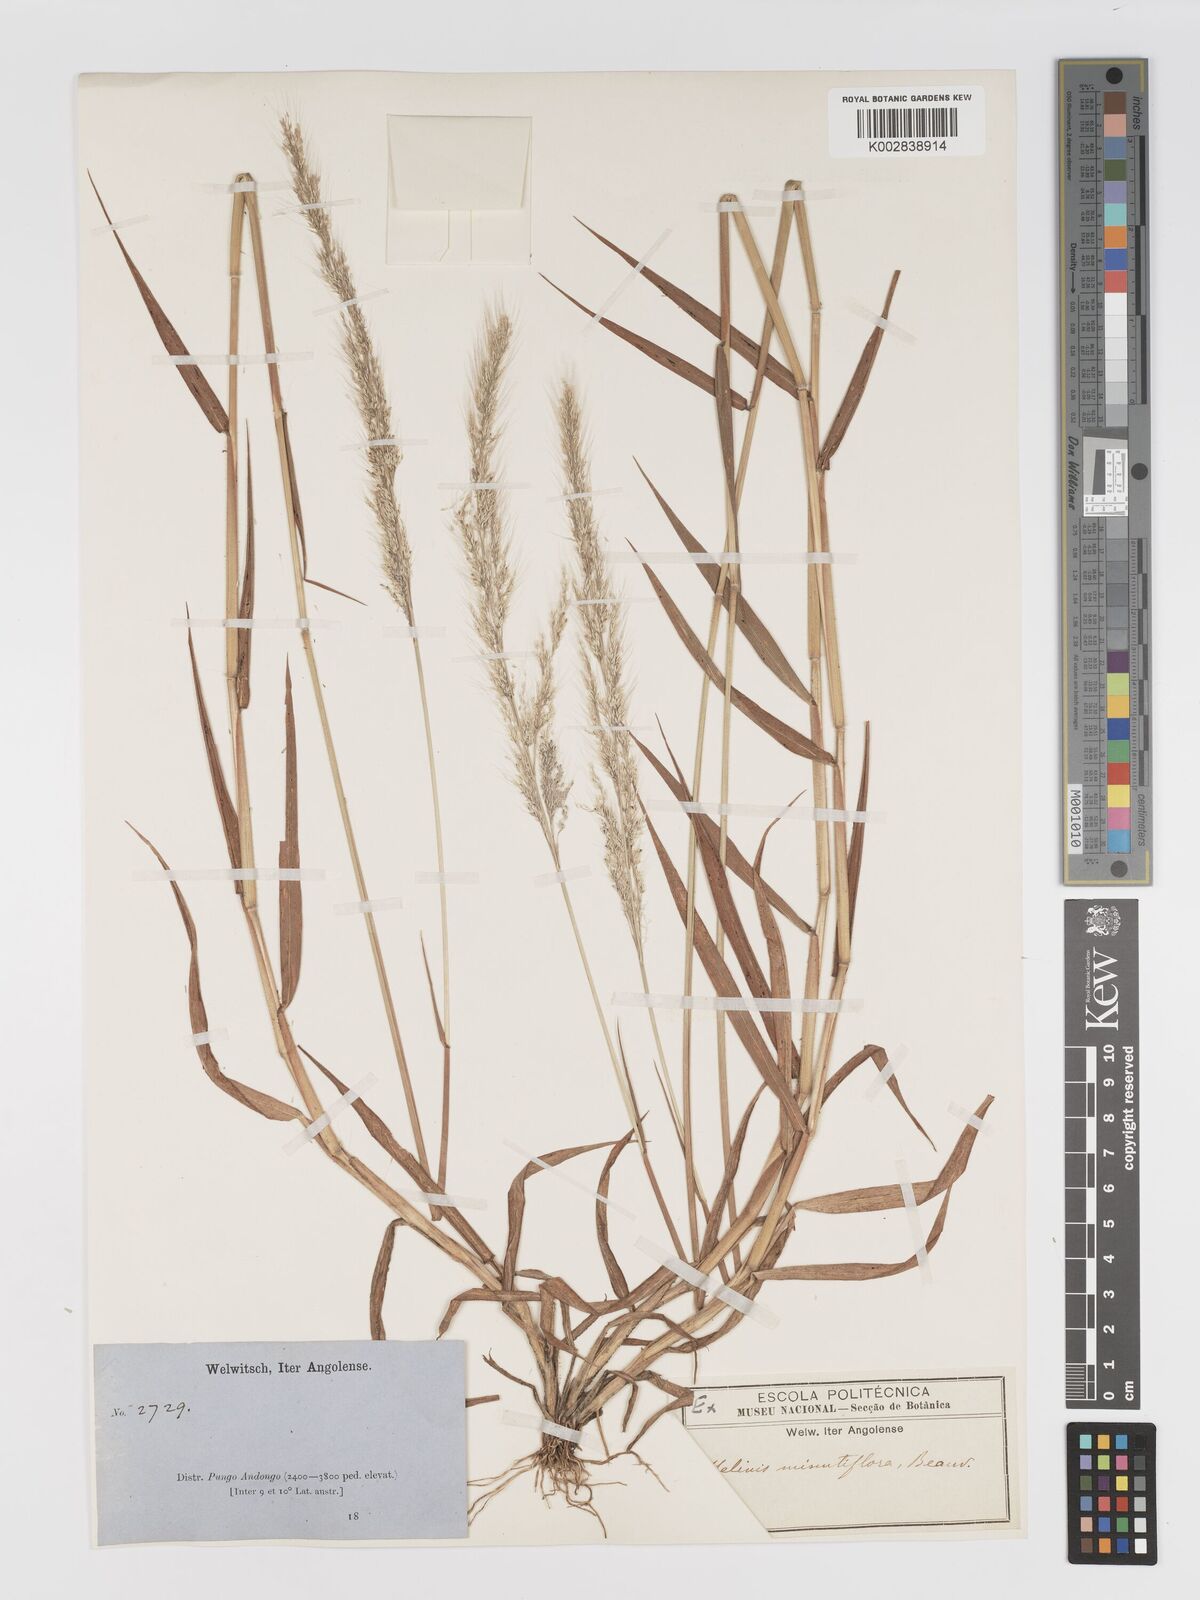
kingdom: Plantae
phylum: Tracheophyta
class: Liliopsida
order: Poales
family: Poaceae
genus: Melinis
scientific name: Melinis macrochaeta
